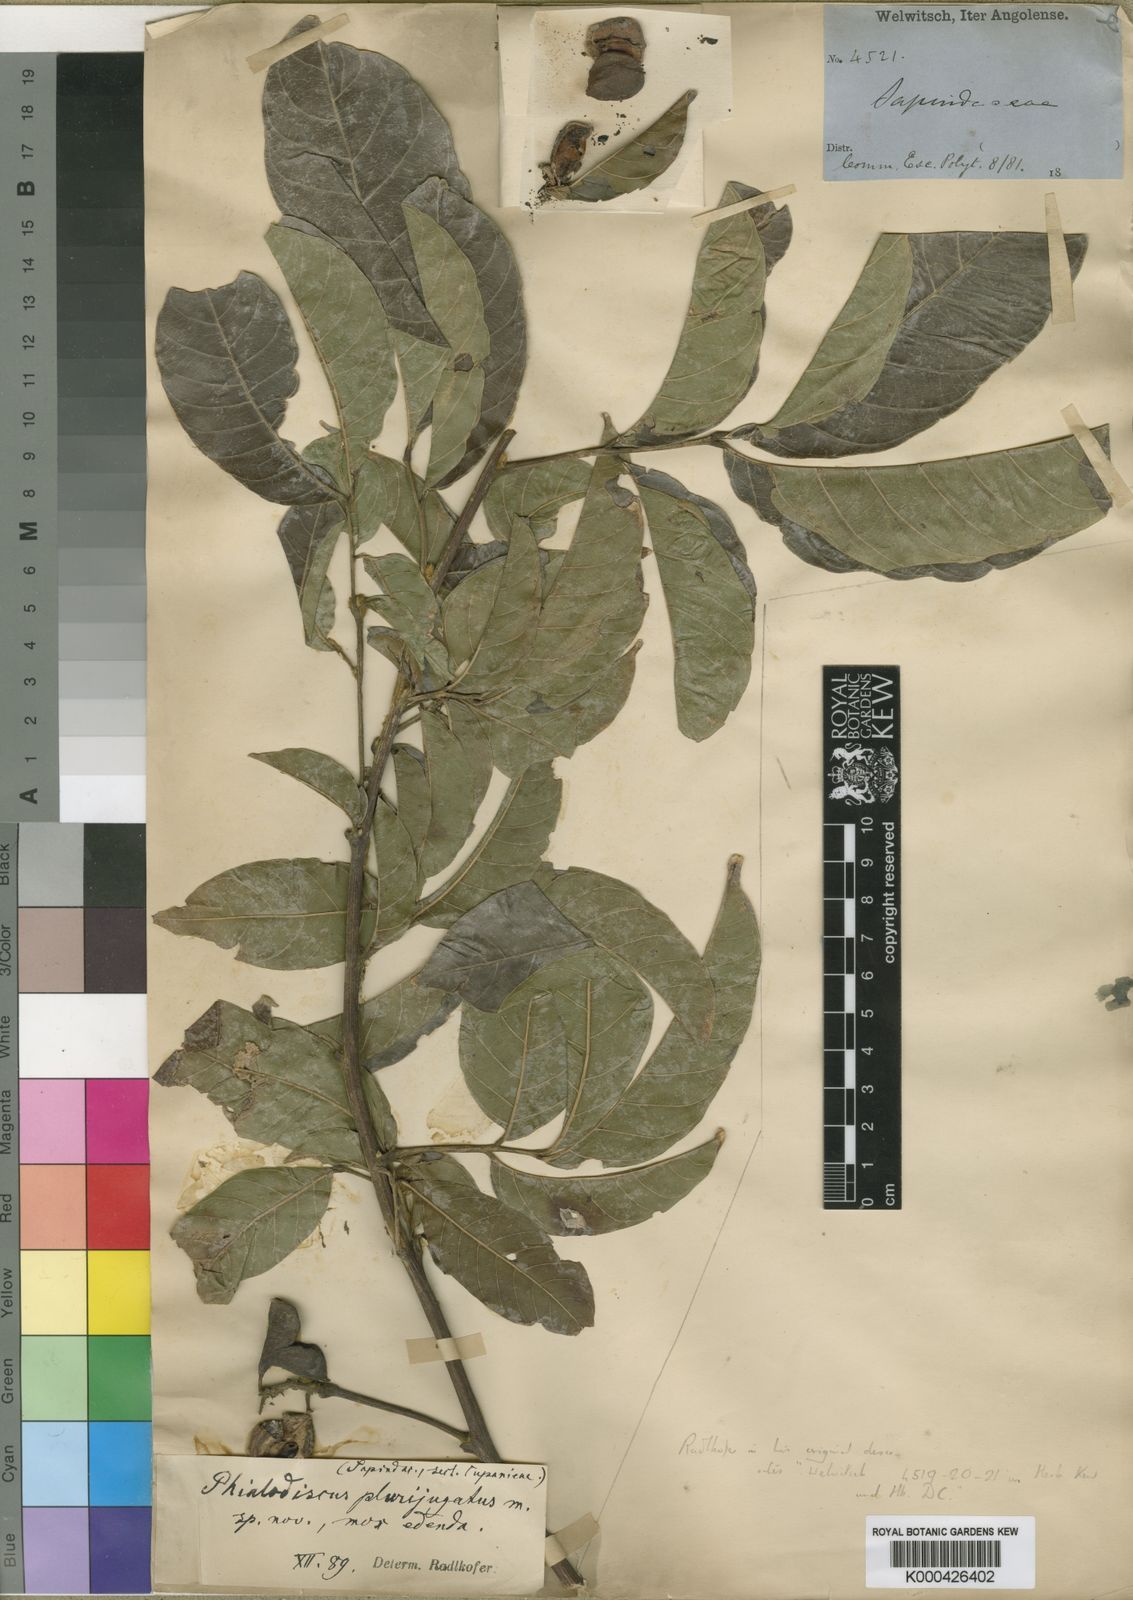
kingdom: Plantae
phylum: Tracheophyta
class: Magnoliopsida
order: Sapindales
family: Sapindaceae
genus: Blighia
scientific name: Blighia unijugata
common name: Triangle tops
